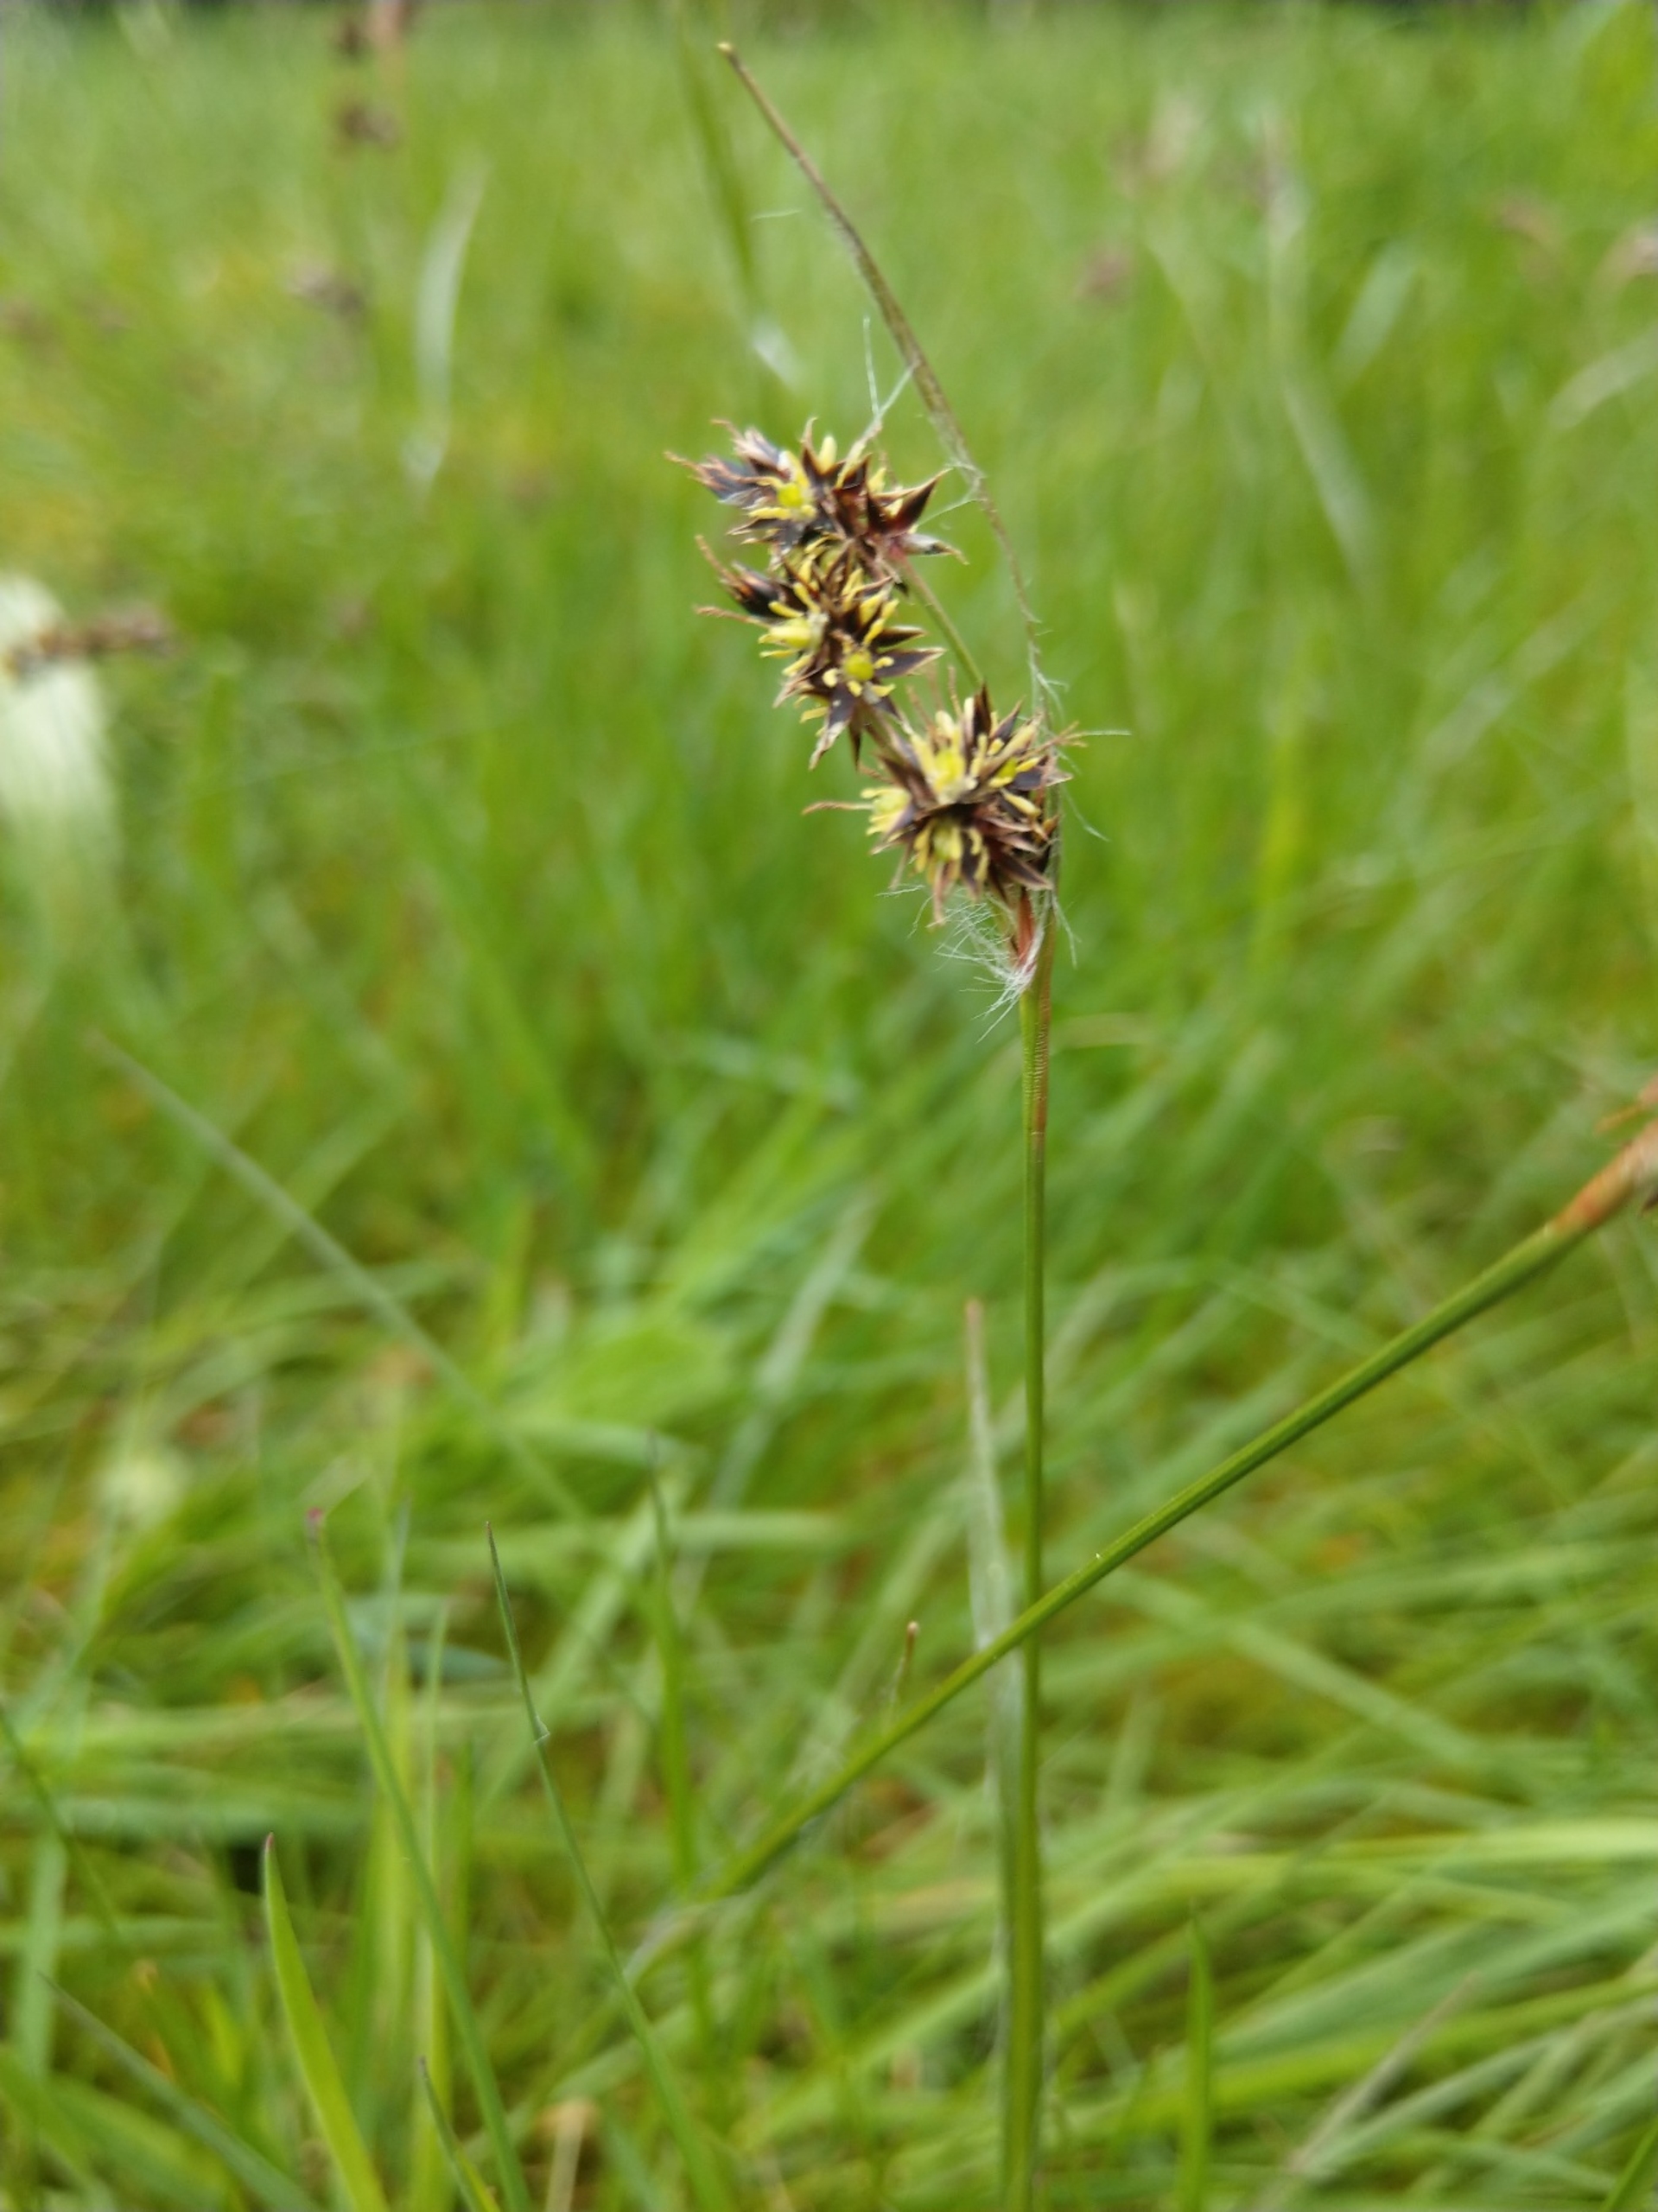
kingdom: Plantae
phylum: Tracheophyta
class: Liliopsida
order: Poales
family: Juncaceae
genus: Luzula
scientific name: Luzula campestris
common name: Mark-frytle
